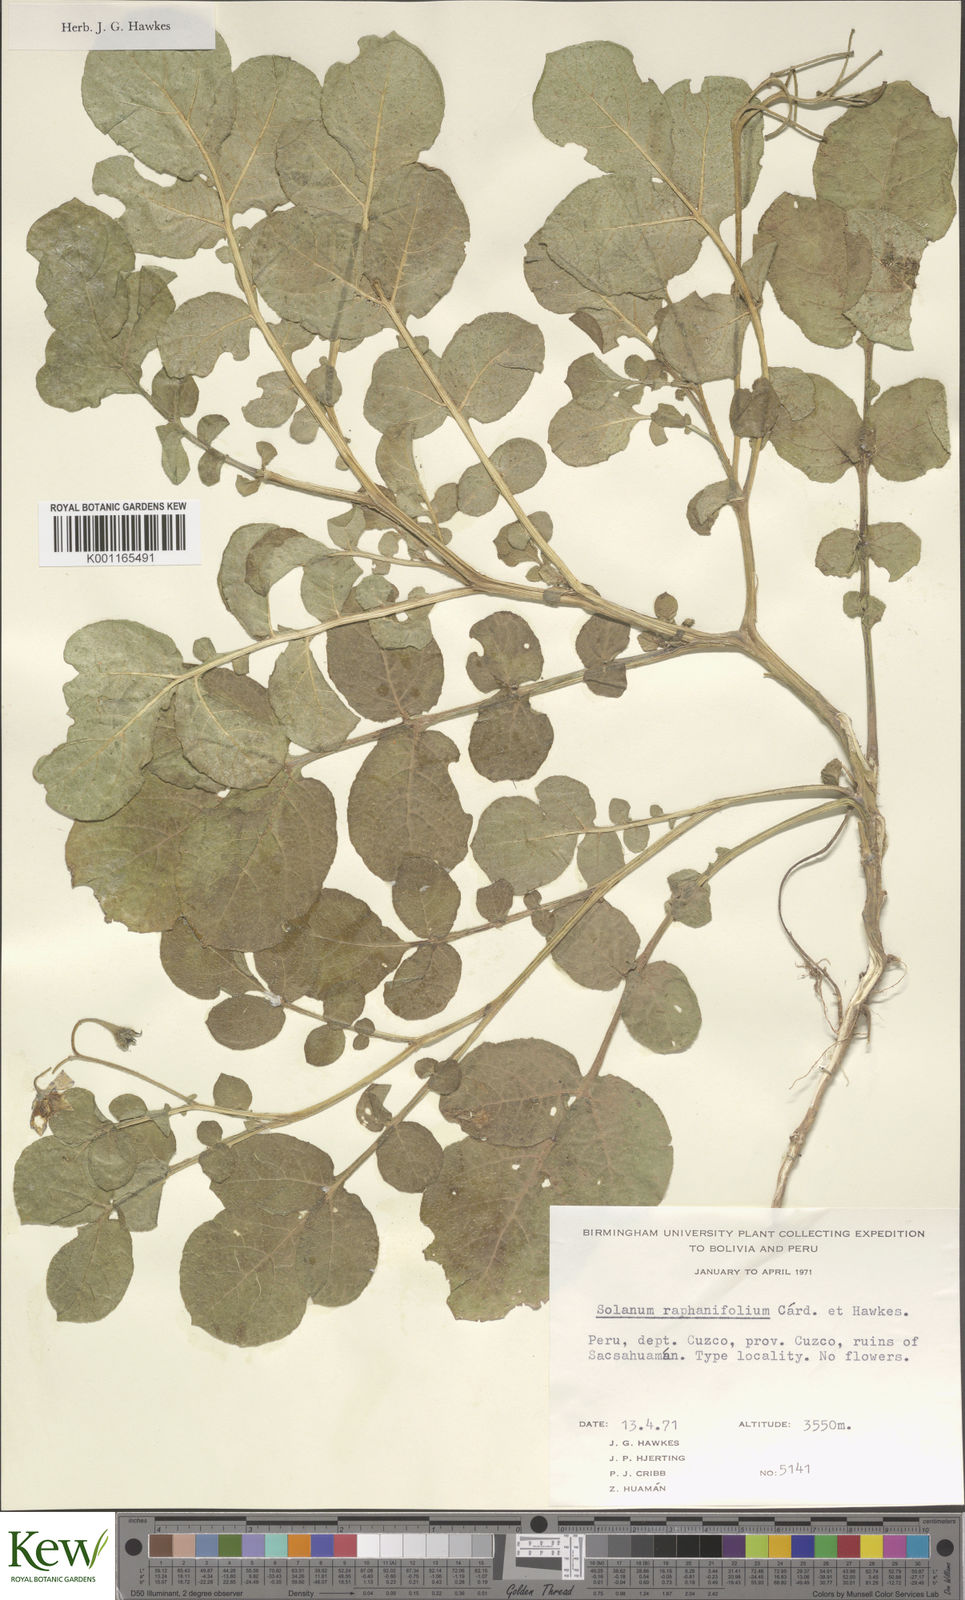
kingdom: Plantae
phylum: Tracheophyta
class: Magnoliopsida
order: Solanales
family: Solanaceae
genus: Solanum
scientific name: Solanum raphanifolium
